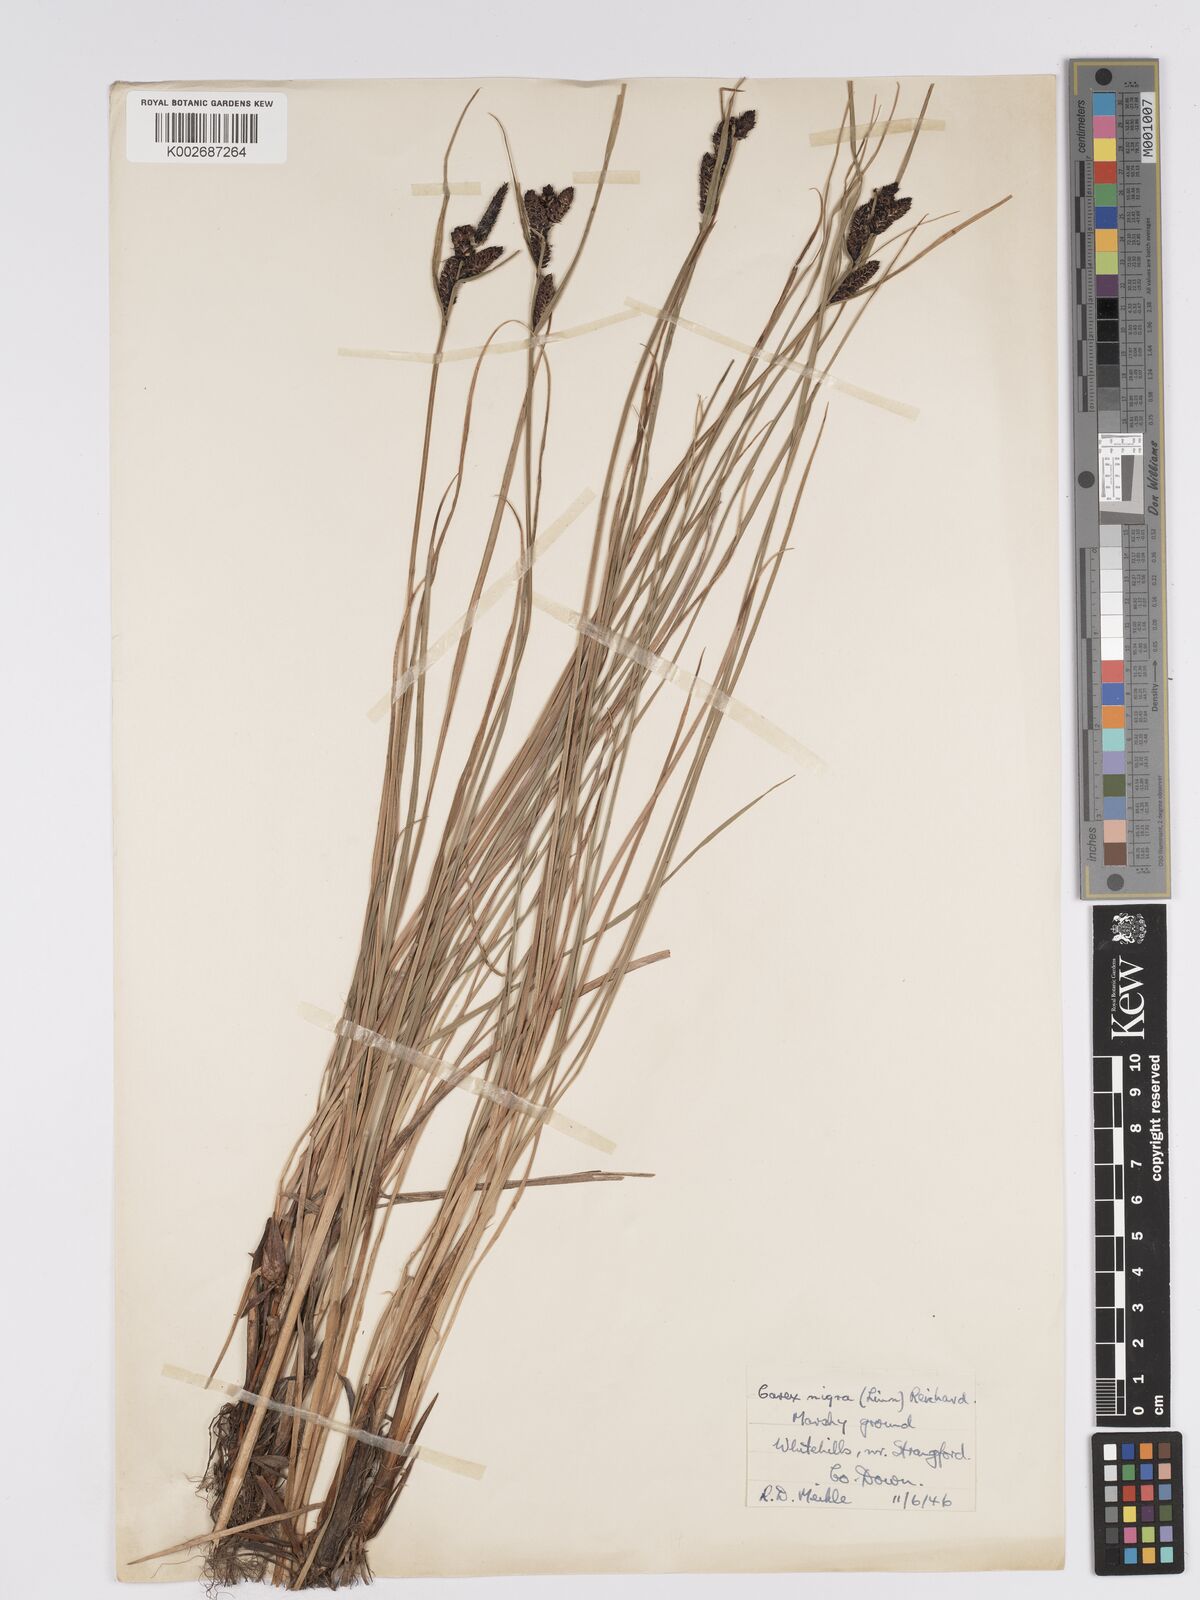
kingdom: Plantae
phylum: Tracheophyta
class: Liliopsida
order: Poales
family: Cyperaceae
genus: Carex
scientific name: Carex nigra
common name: Common sedge
